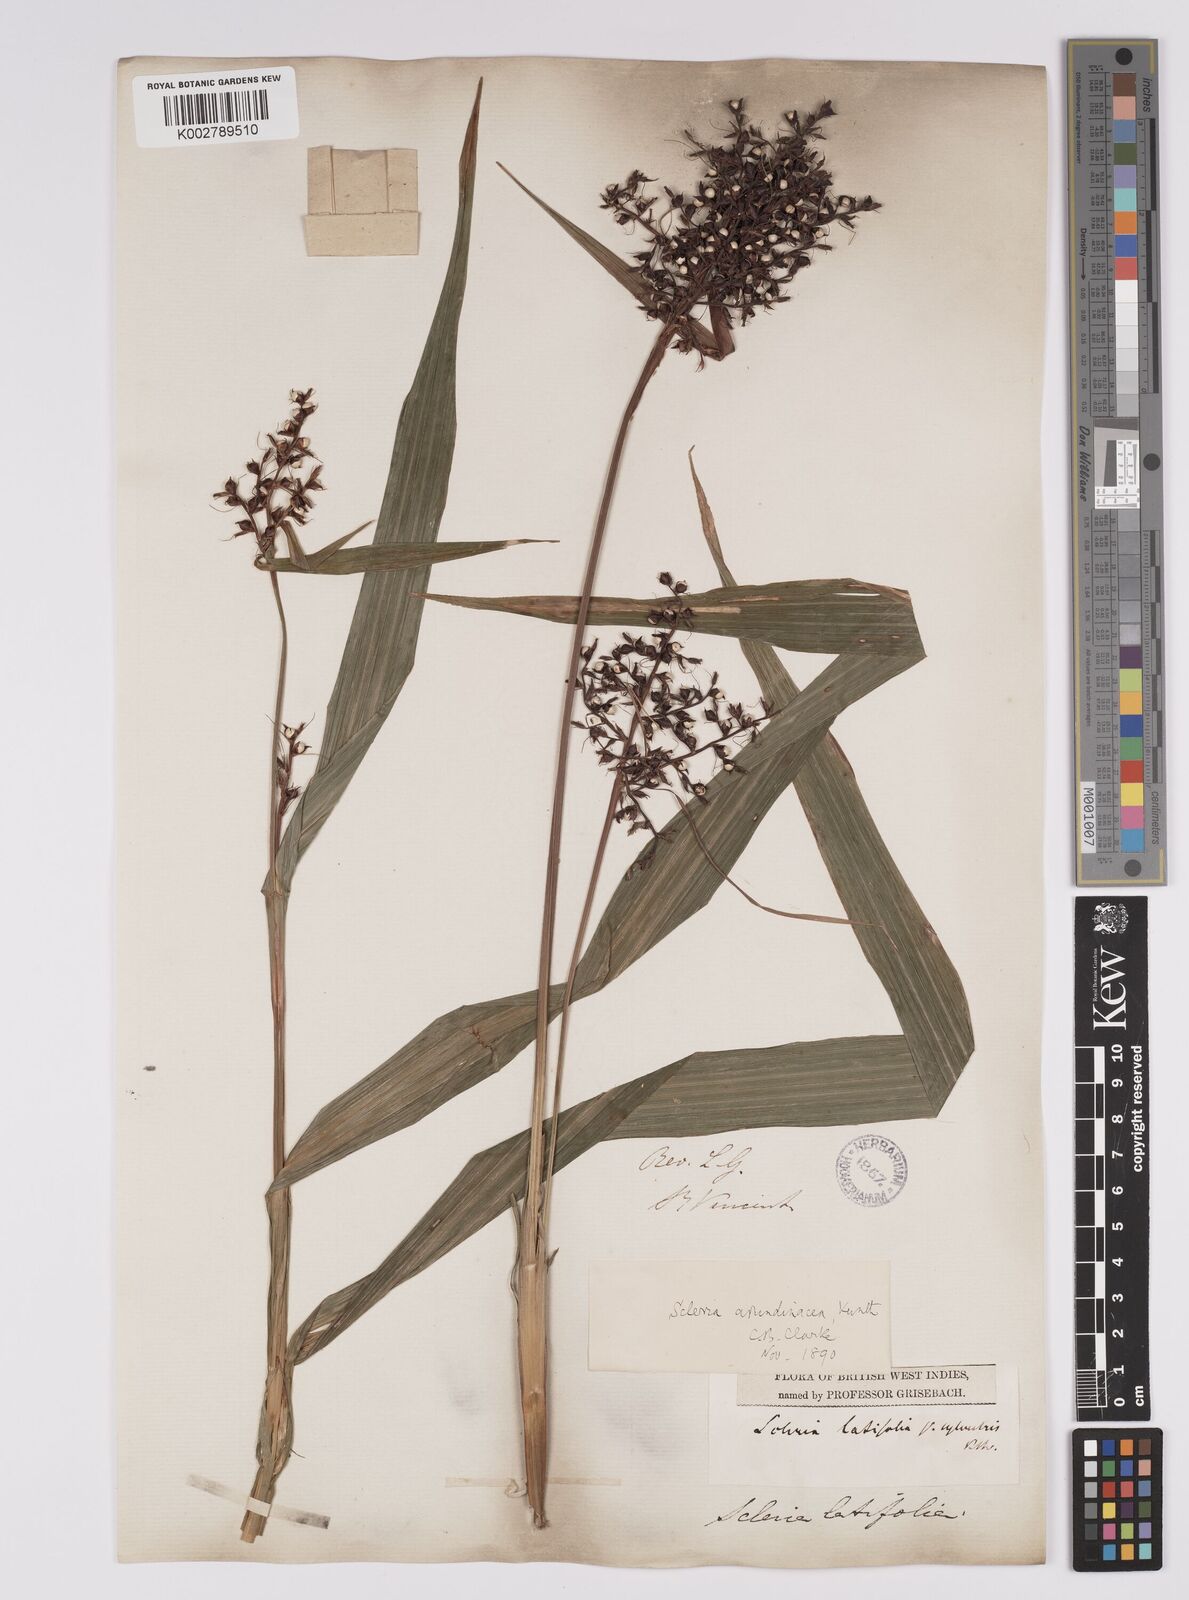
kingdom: Plantae
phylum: Tracheophyta
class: Liliopsida
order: Poales
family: Cyperaceae
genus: Scleria
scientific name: Scleria latifolia
